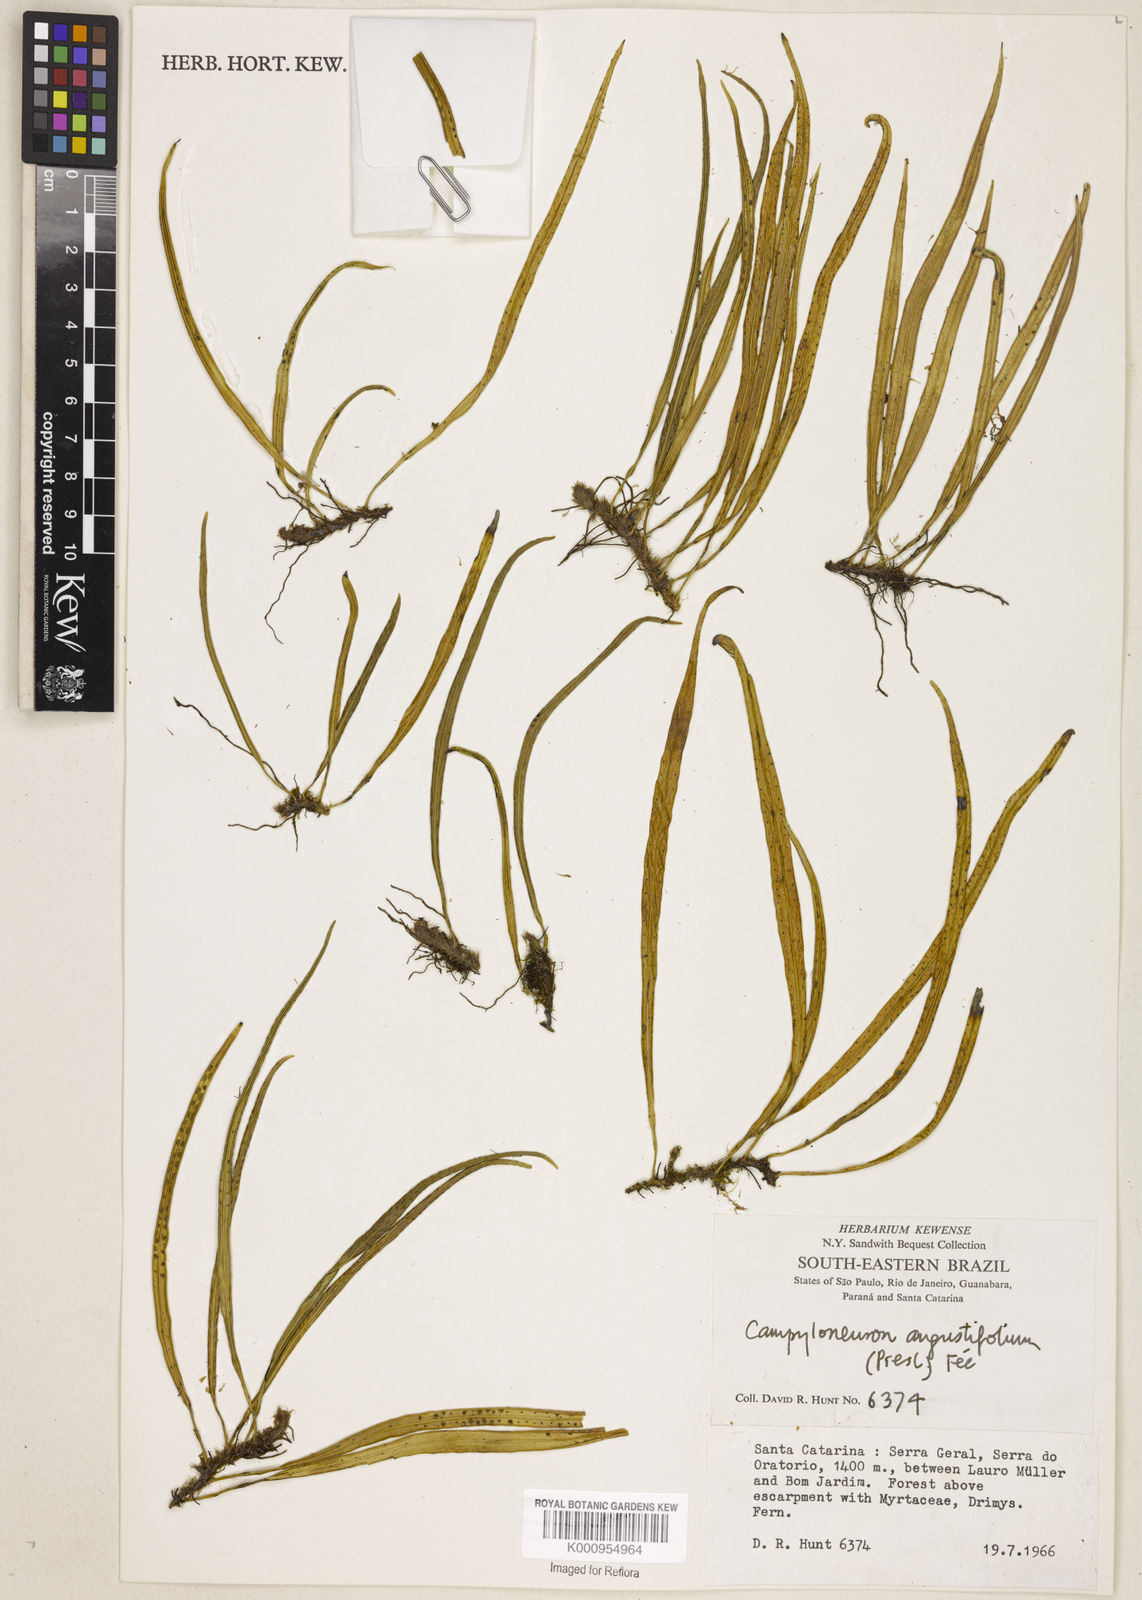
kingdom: Plantae
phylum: Tracheophyta
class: Polypodiopsida
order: Polypodiales
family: Polypodiaceae
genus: Campyloneurum
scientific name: Campyloneurum
